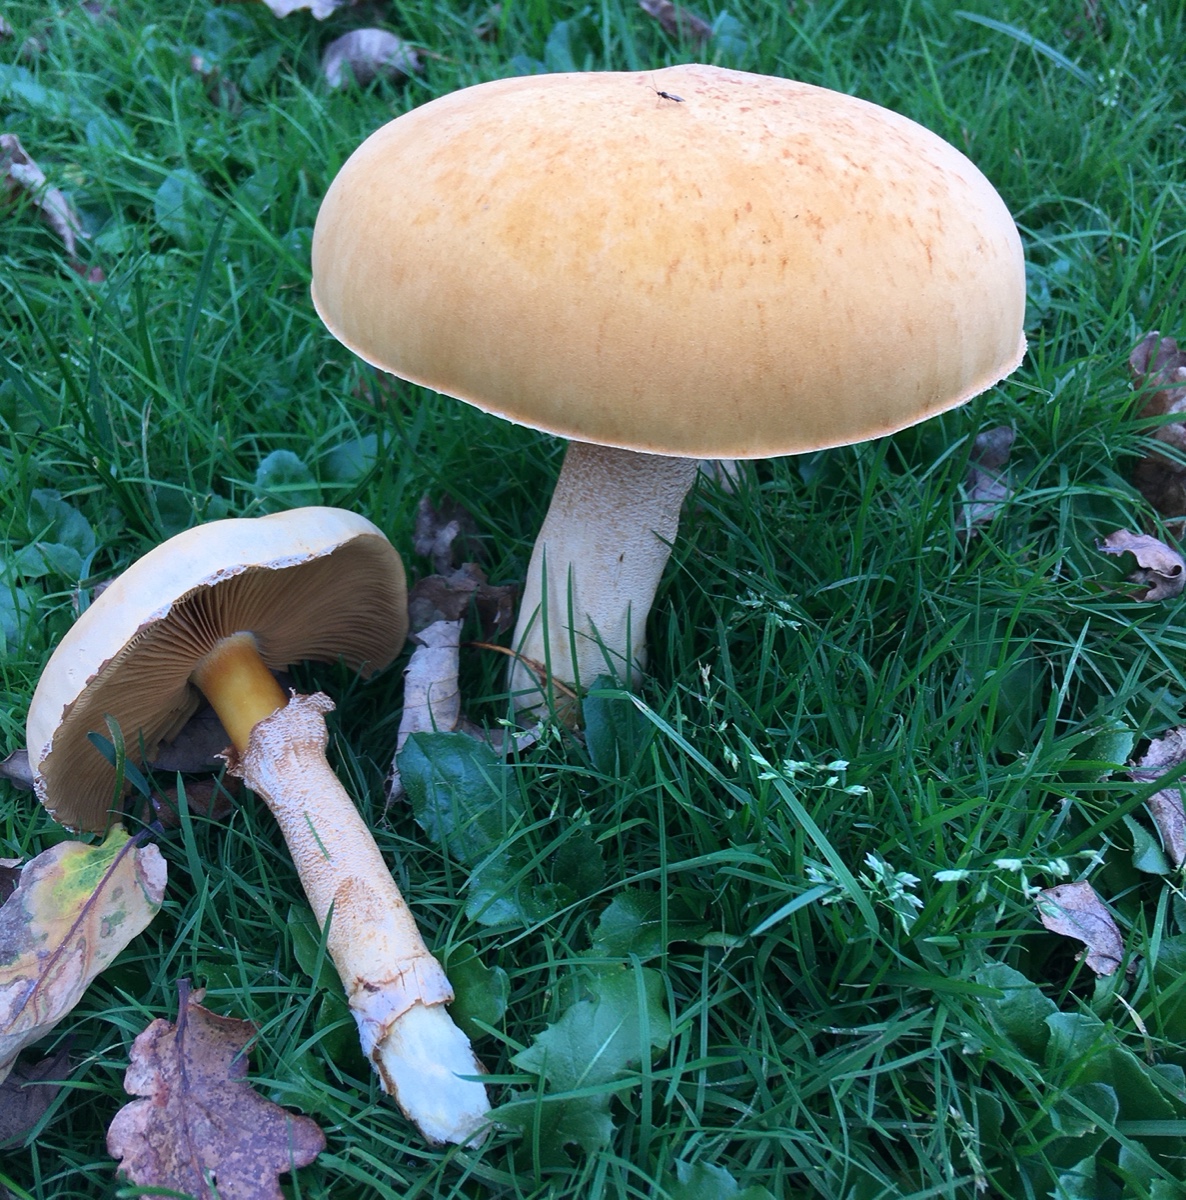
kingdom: Fungi
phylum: Basidiomycota
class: Agaricomycetes
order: Agaricales
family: Tricholomataceae
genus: Phaeolepiota
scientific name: Phaeolepiota aurea
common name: gyldenhat
